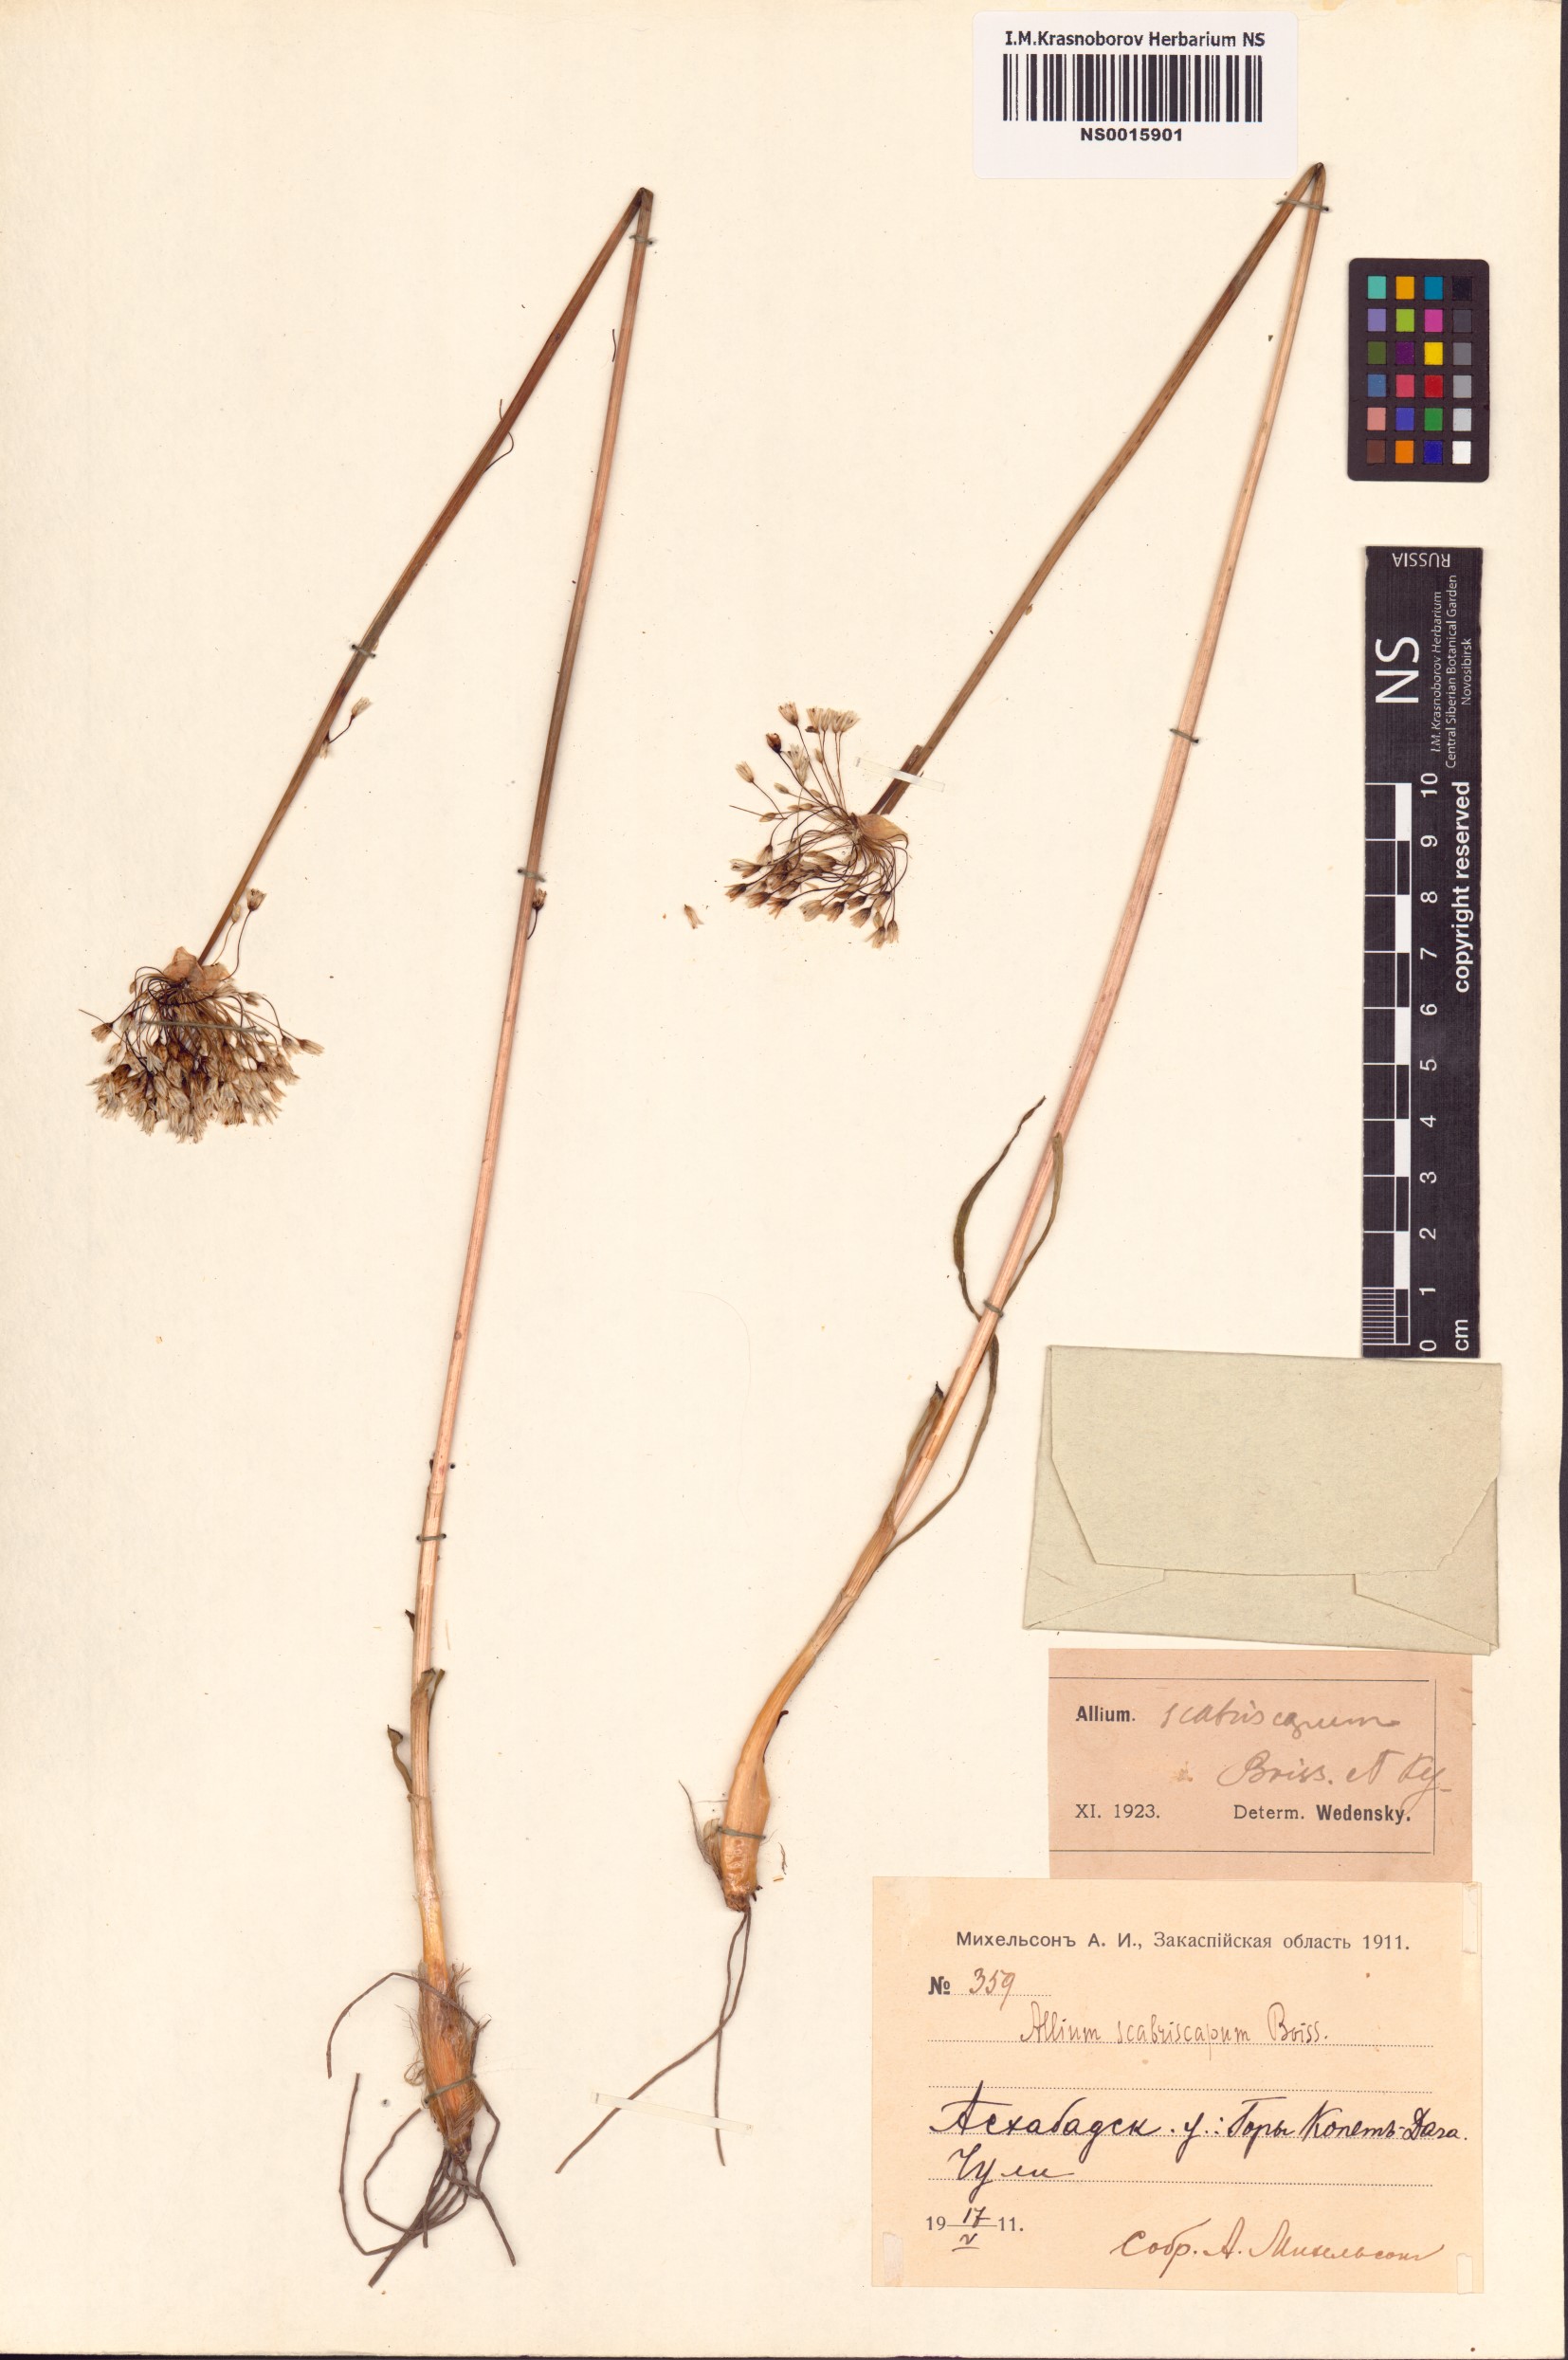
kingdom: Plantae
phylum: Tracheophyta
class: Liliopsida
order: Asparagales
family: Amaryllidaceae
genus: Allium
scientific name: Allium scabriscapum
